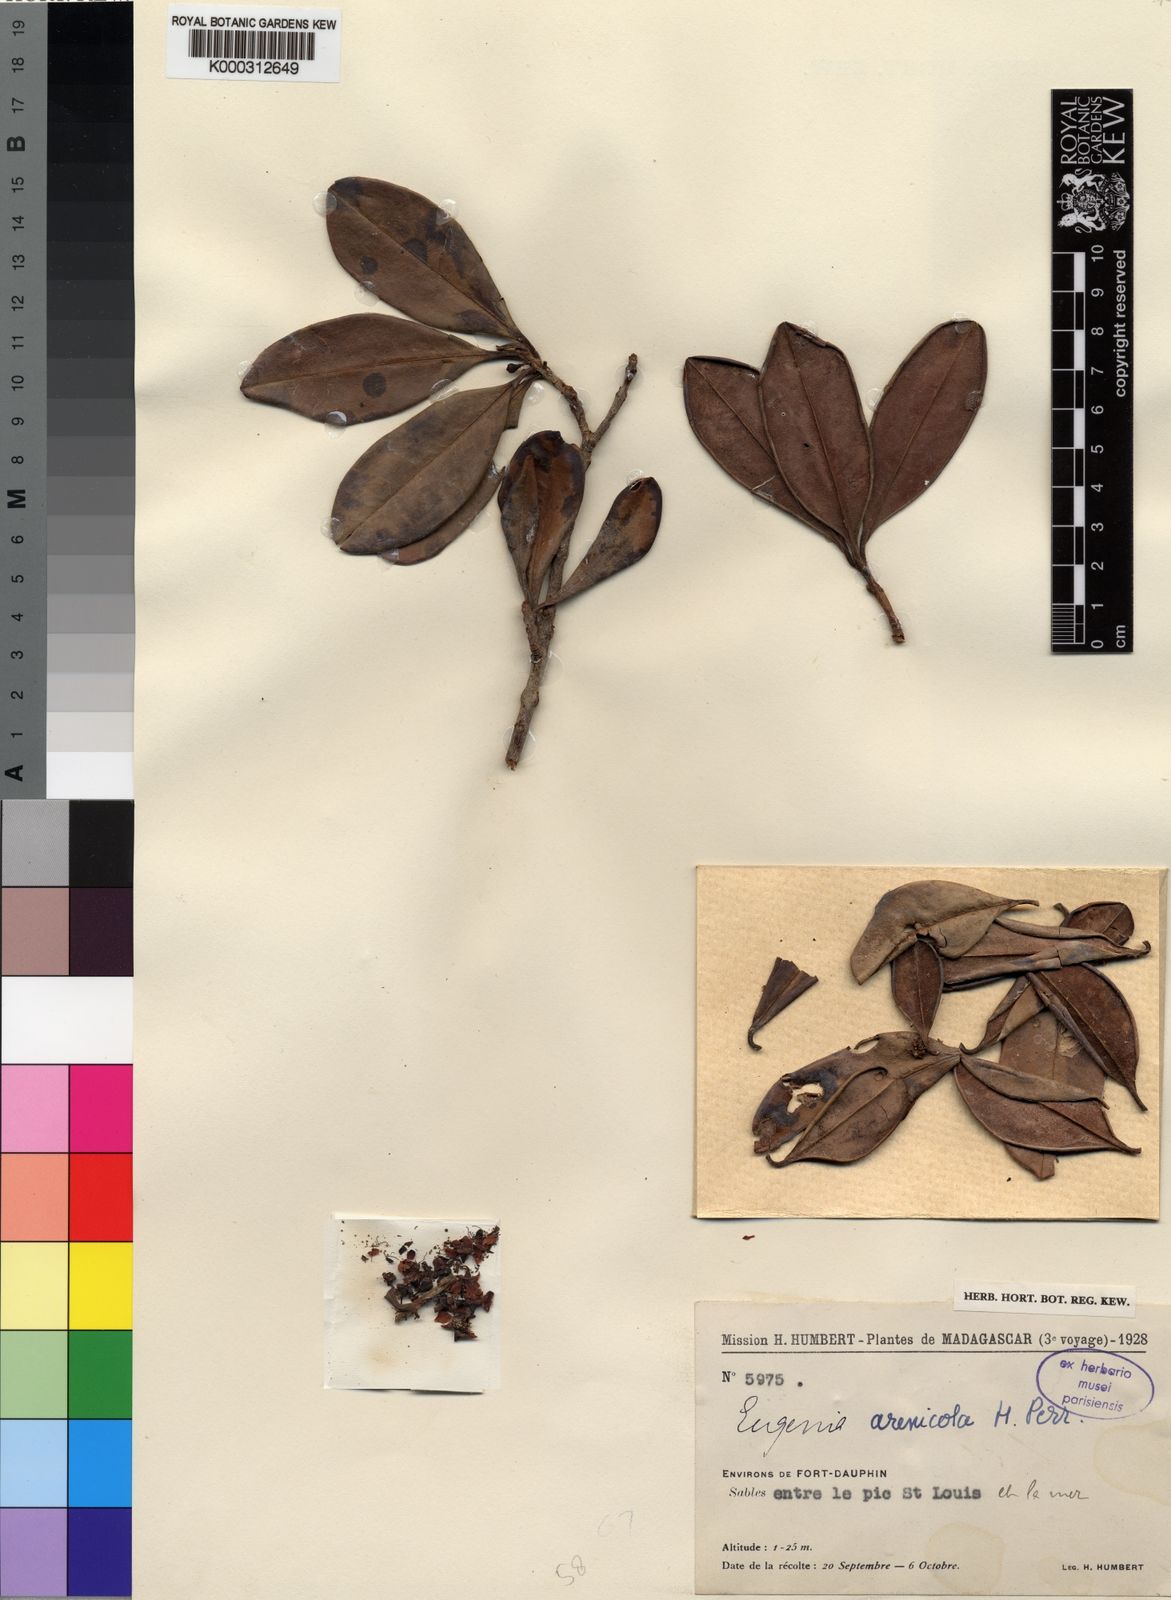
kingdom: Plantae
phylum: Tracheophyta
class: Magnoliopsida
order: Myrtales
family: Myrtaceae
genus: Eugenia
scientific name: Eugenia arenicola
